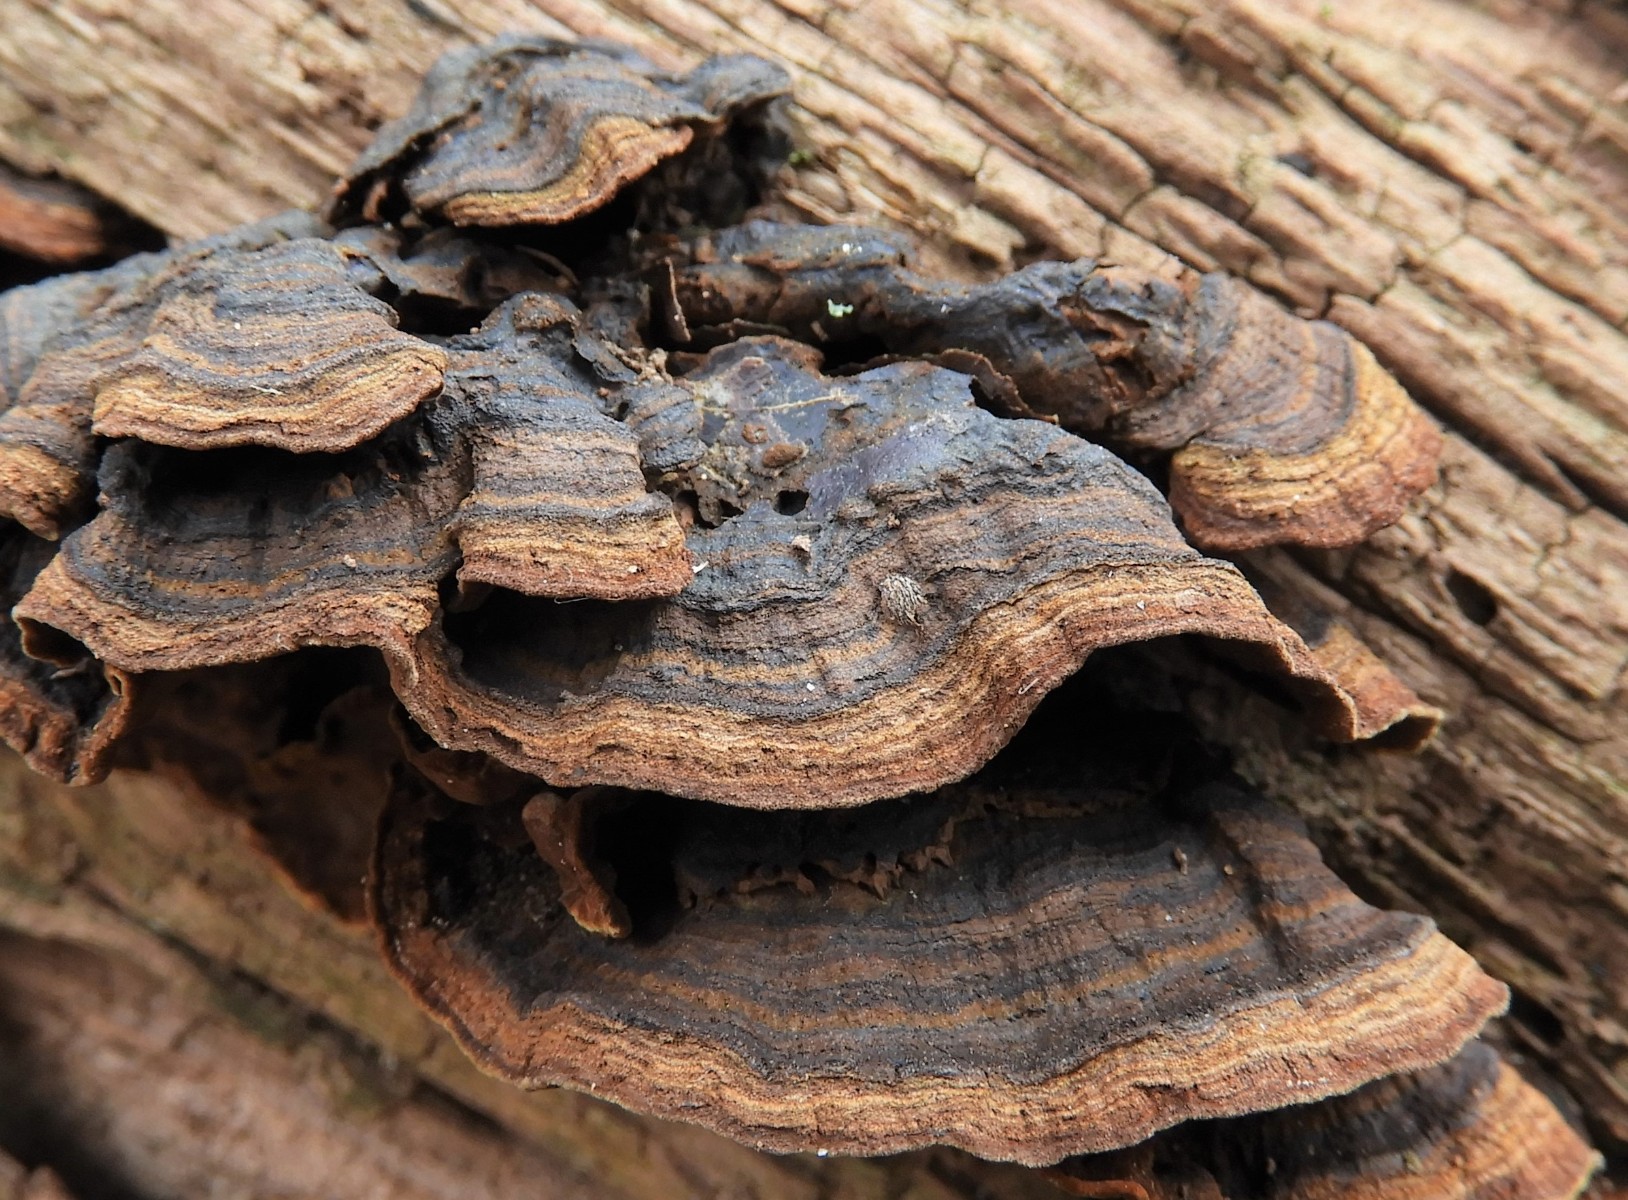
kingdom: Fungi
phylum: Basidiomycota
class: Agaricomycetes
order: Hymenochaetales
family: Hymenochaetaceae
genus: Hymenochaete
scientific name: Hymenochaete rubiginosa
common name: stiv ruslædersvamp
